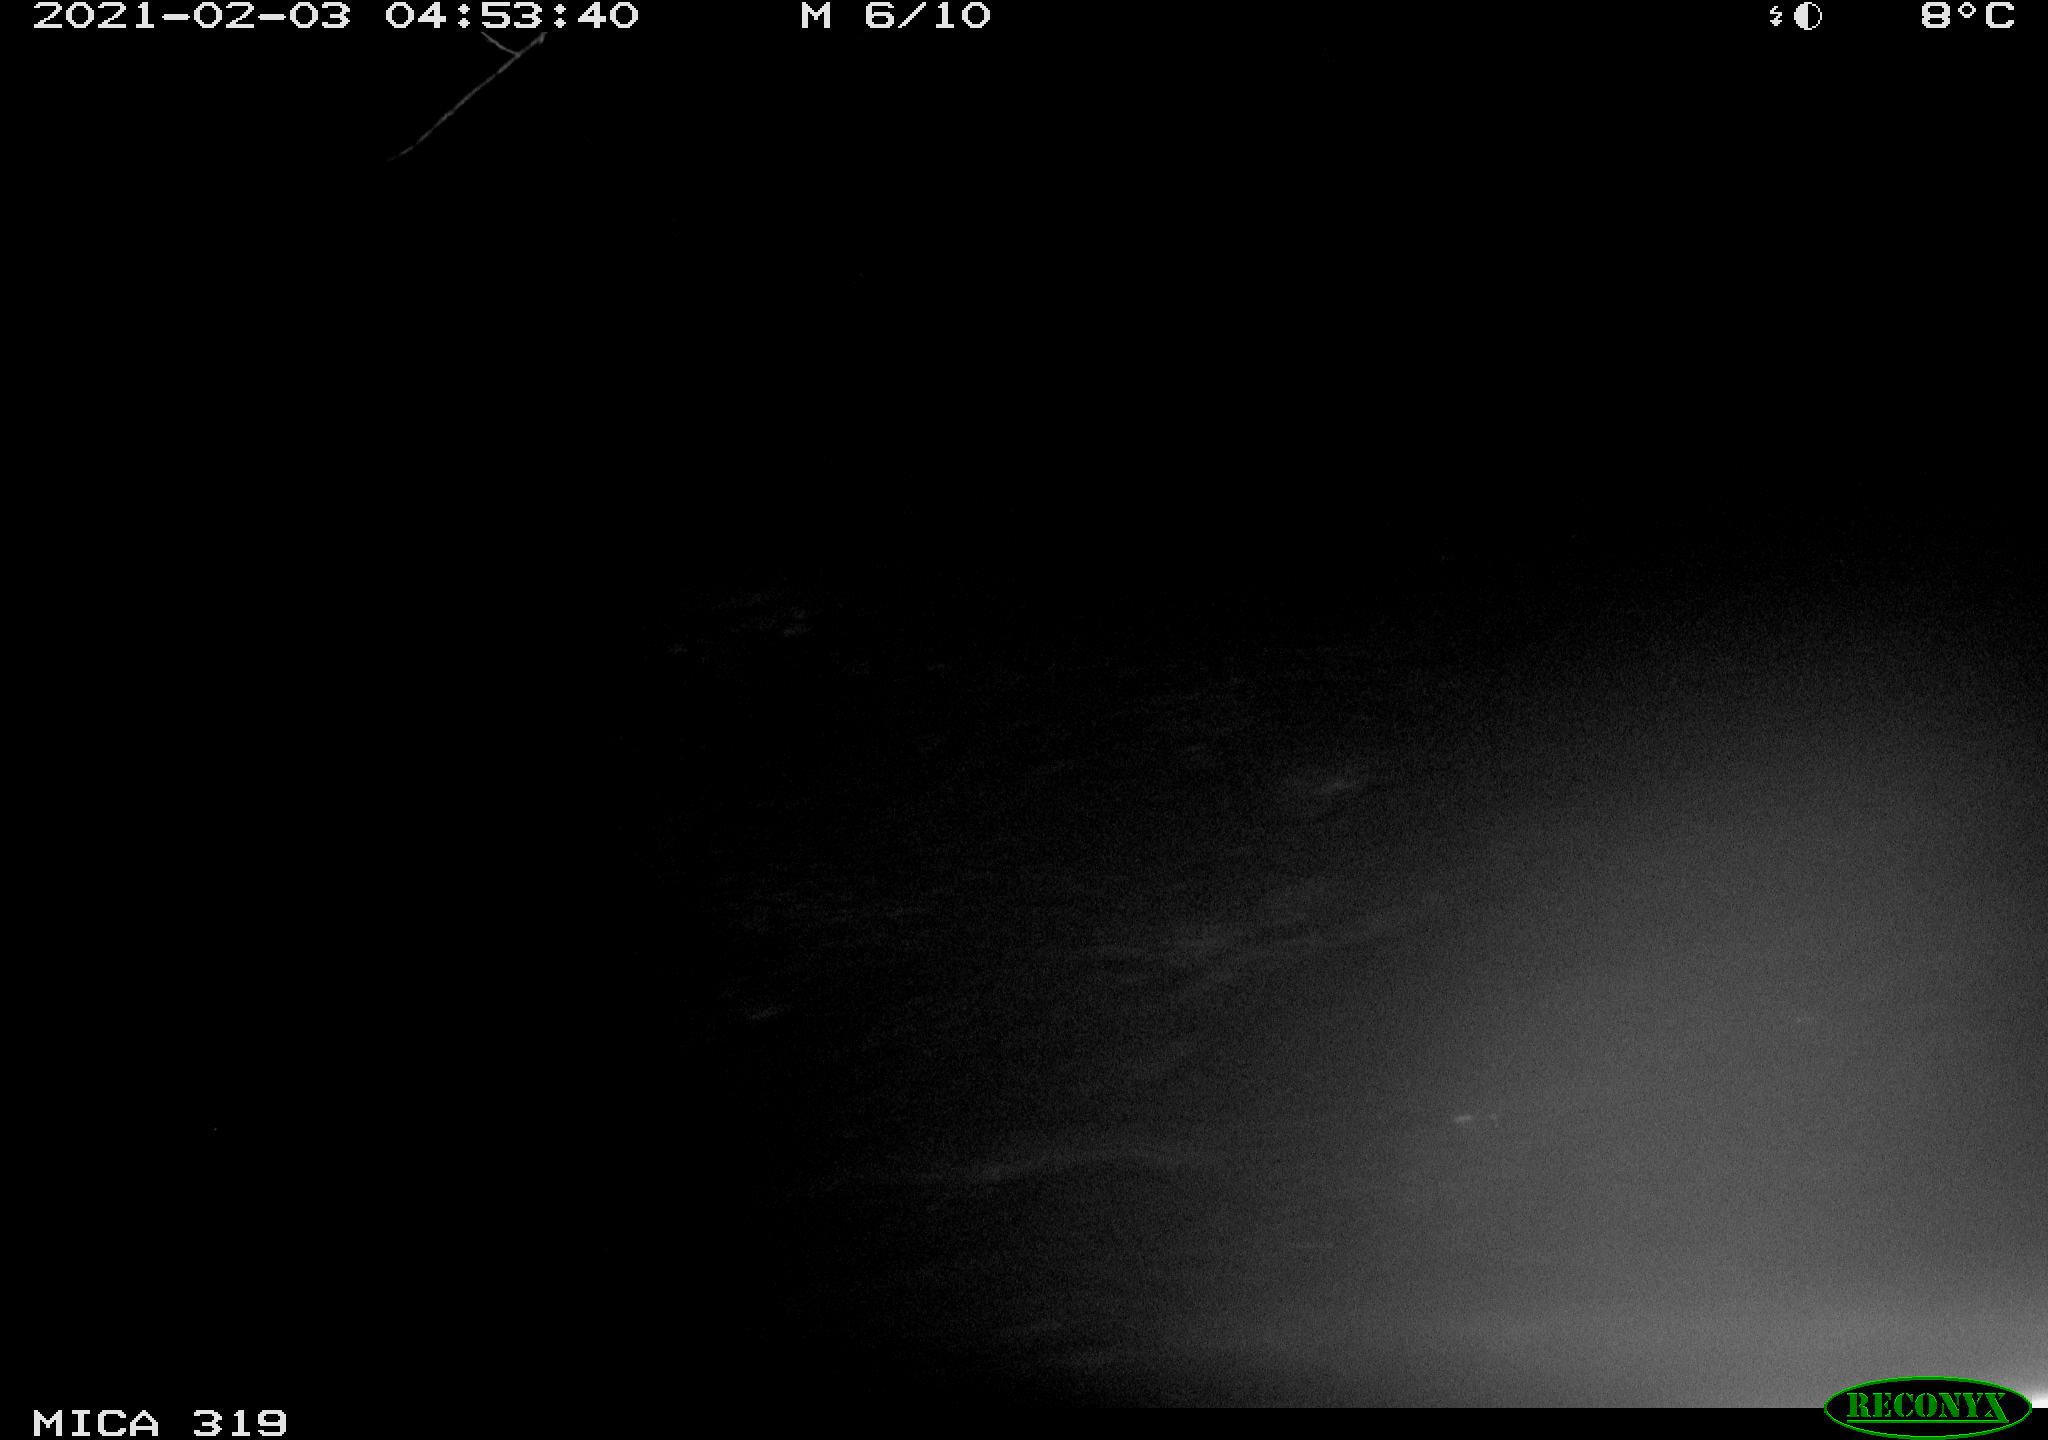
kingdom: Animalia
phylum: Chordata
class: Mammalia
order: Rodentia
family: Muridae
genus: Rattus
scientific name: Rattus norvegicus
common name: Brown rat
